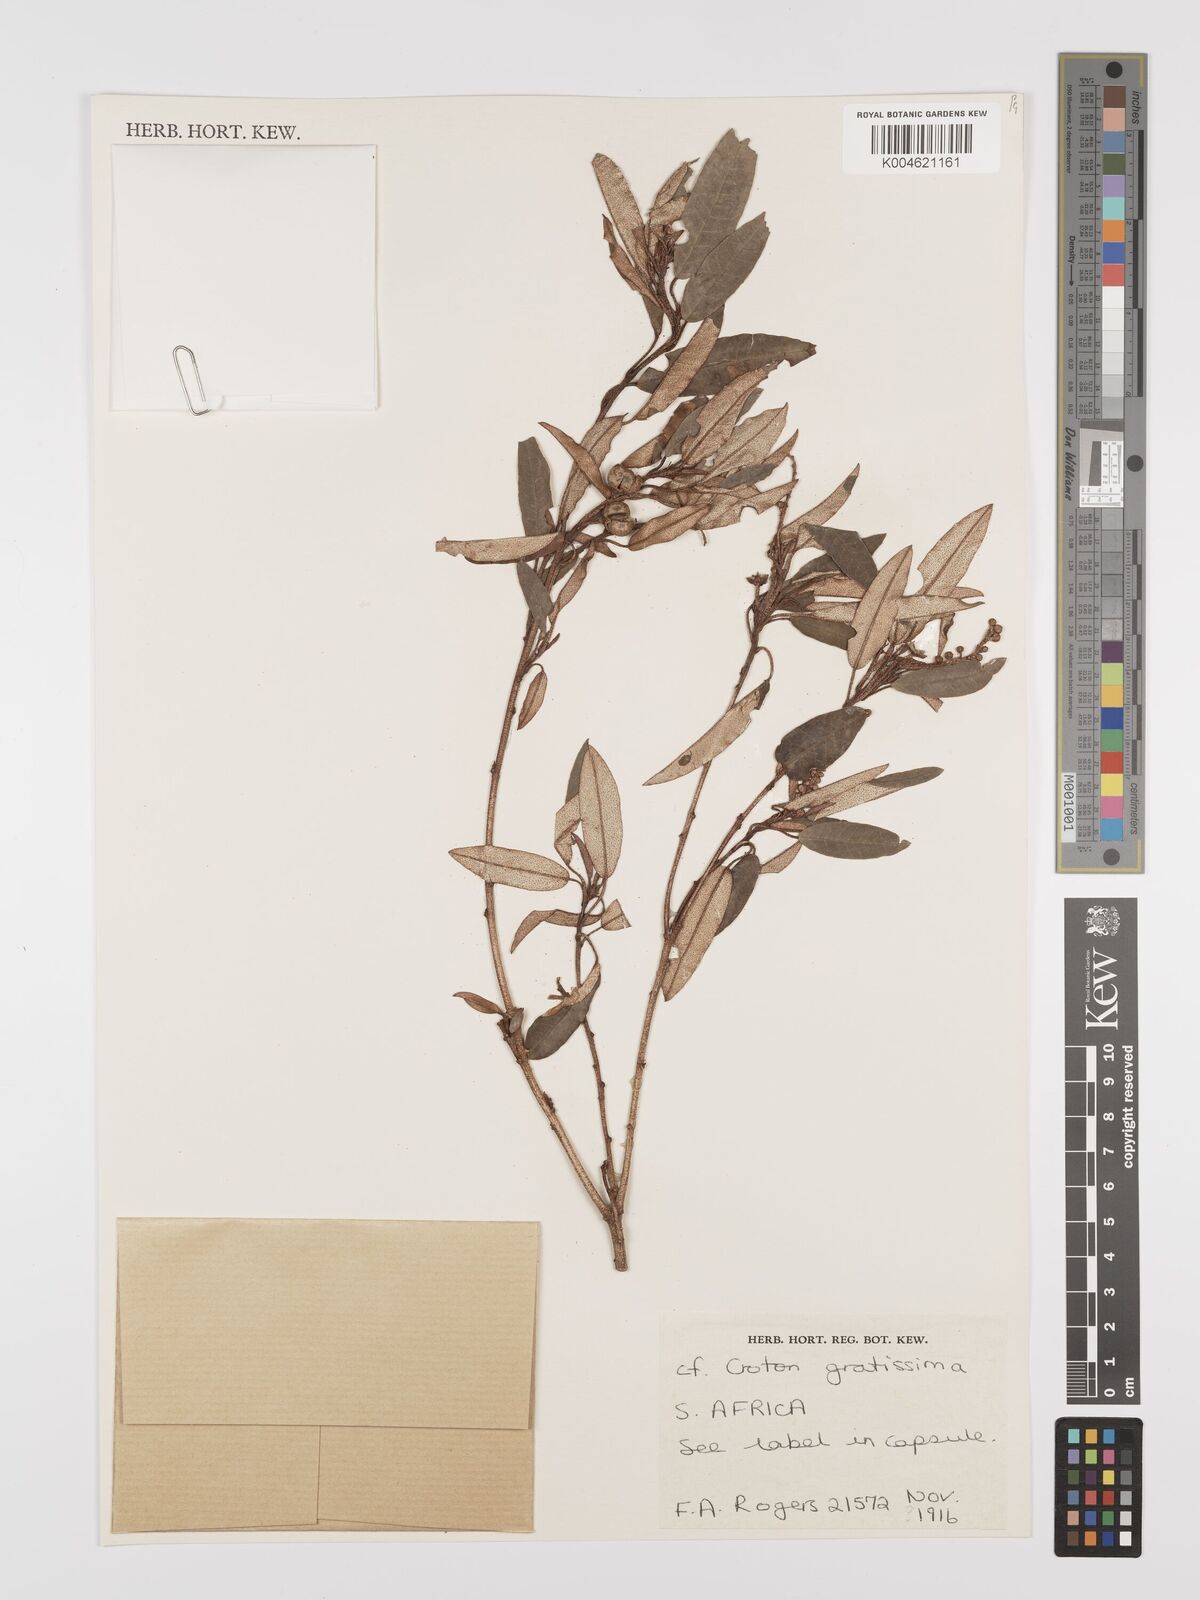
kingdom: Plantae
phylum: Tracheophyta
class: Magnoliopsida
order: Malpighiales
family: Euphorbiaceae
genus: Croton
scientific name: Croton gratissimus
